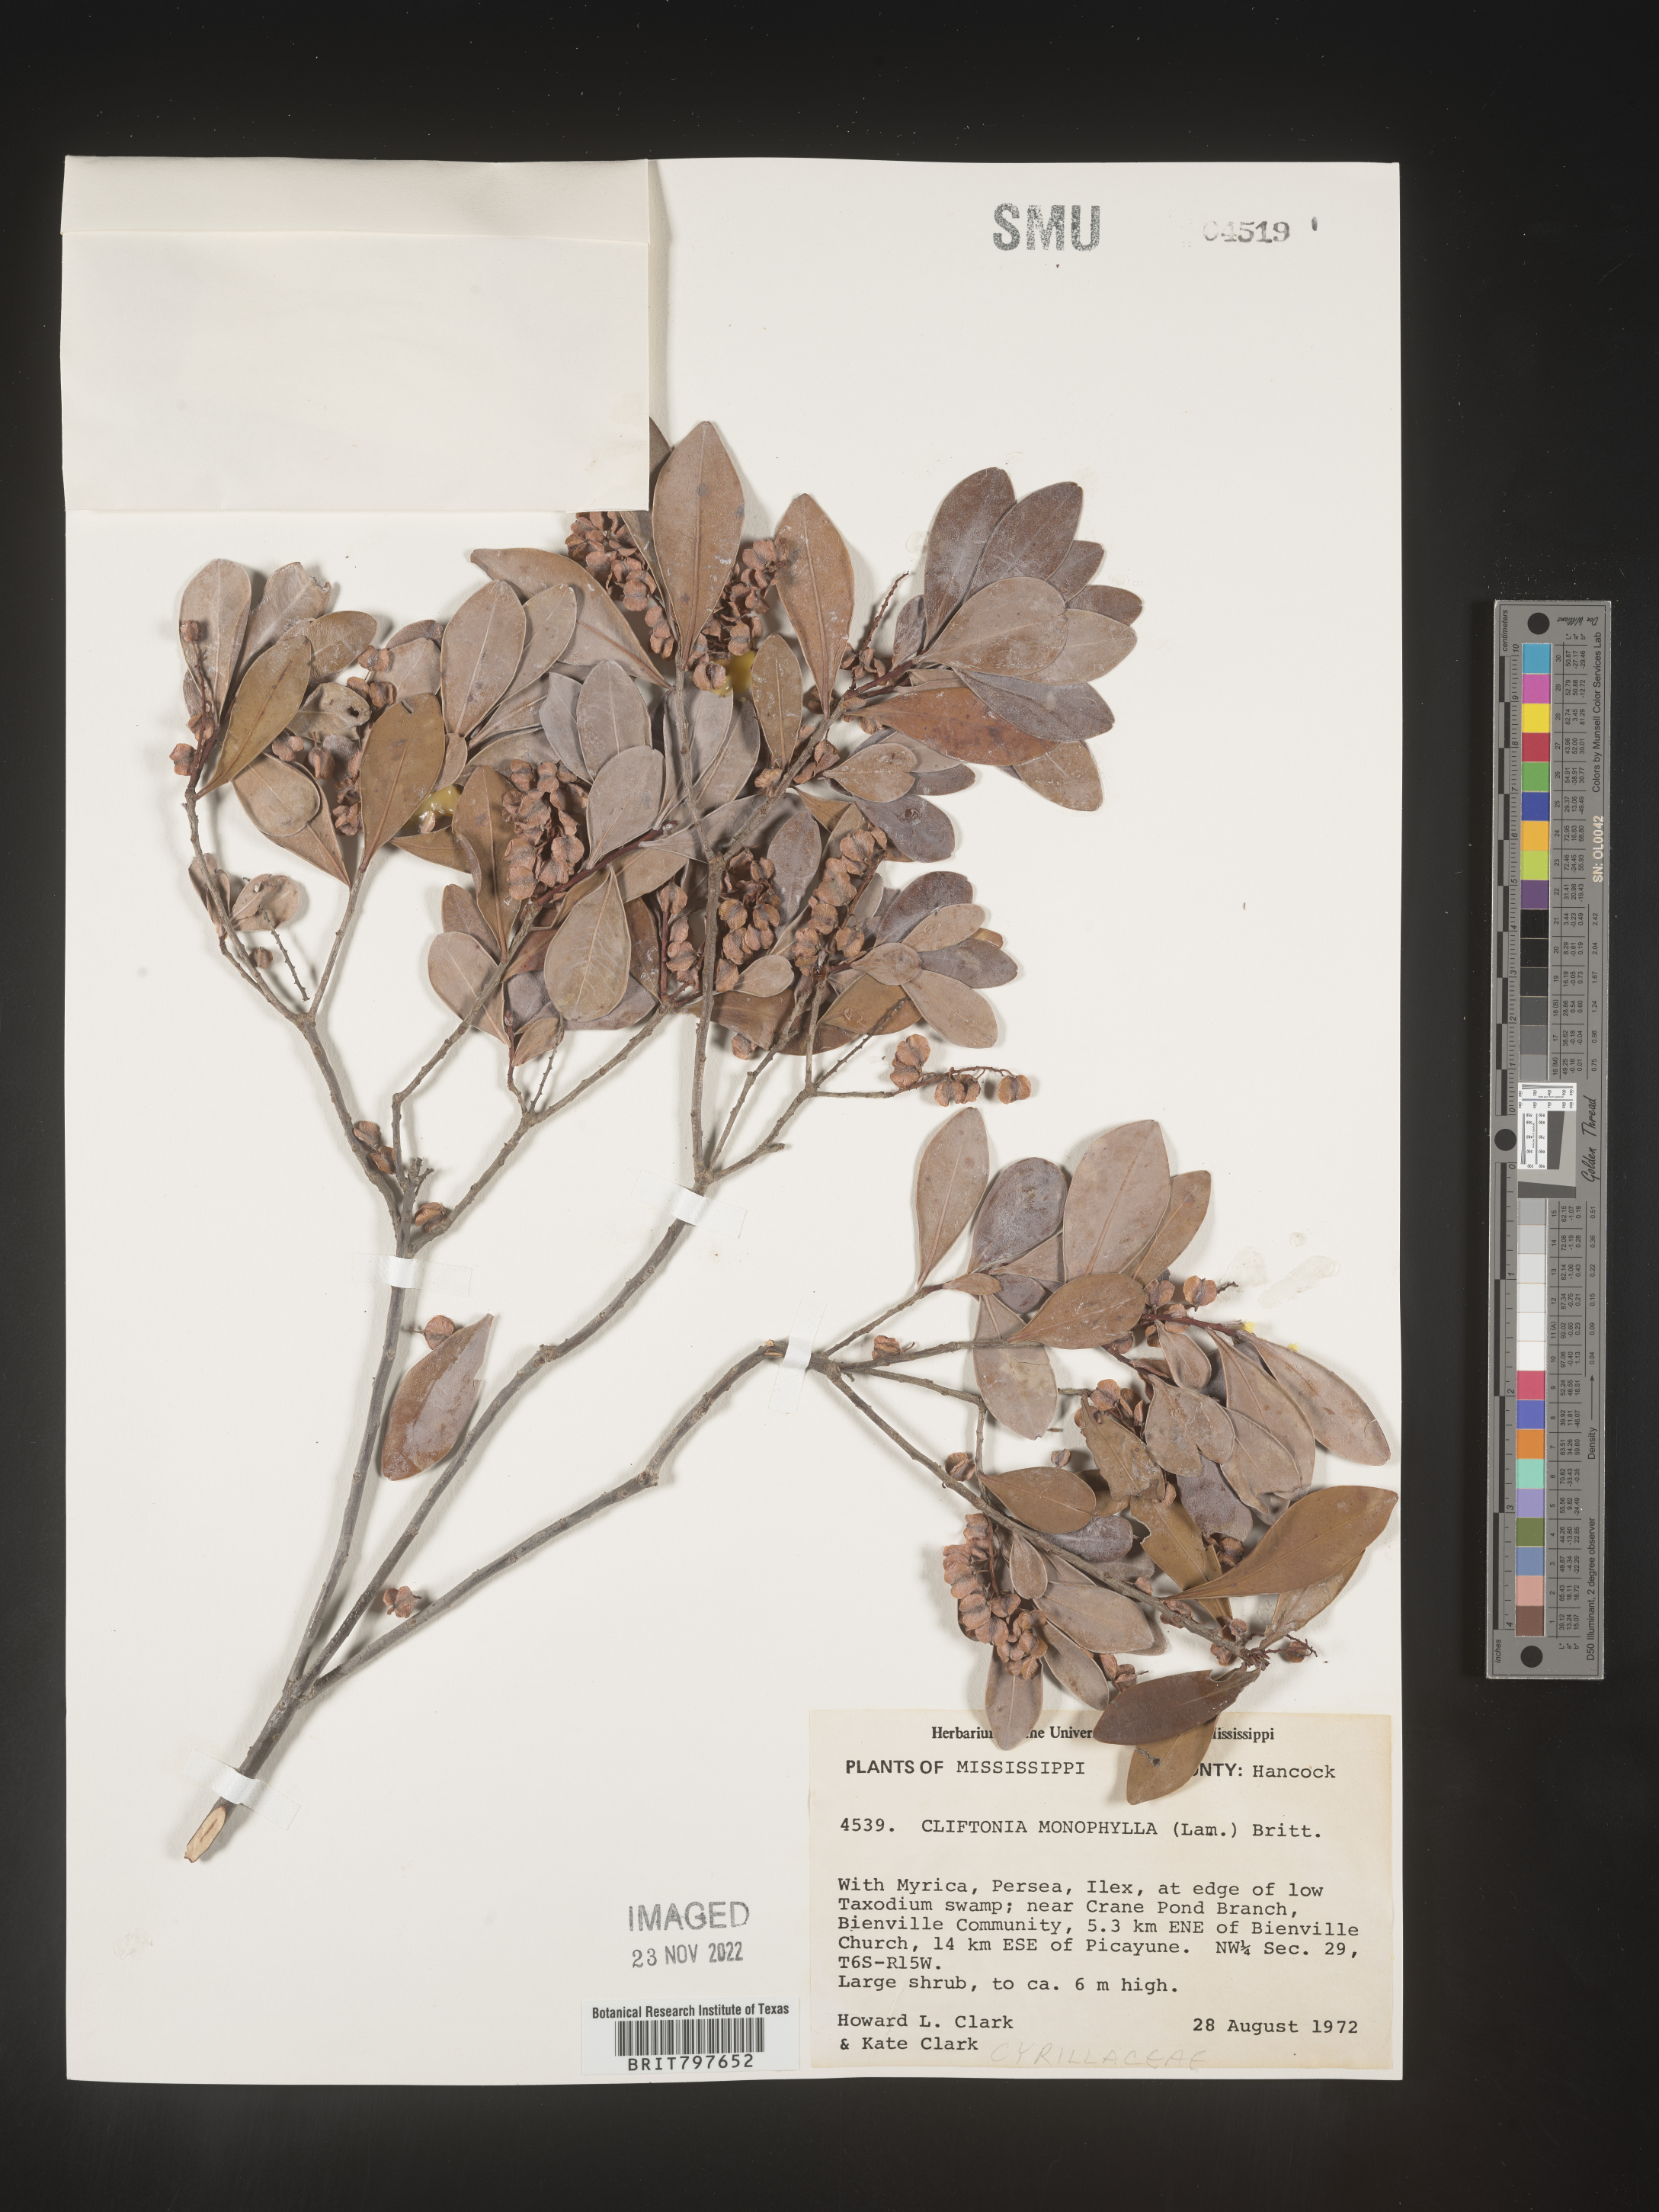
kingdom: Plantae
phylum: Tracheophyta
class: Magnoliopsida
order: Ericales
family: Cyrillaceae
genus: Cliftonia
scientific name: Cliftonia monophylla
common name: Titi
